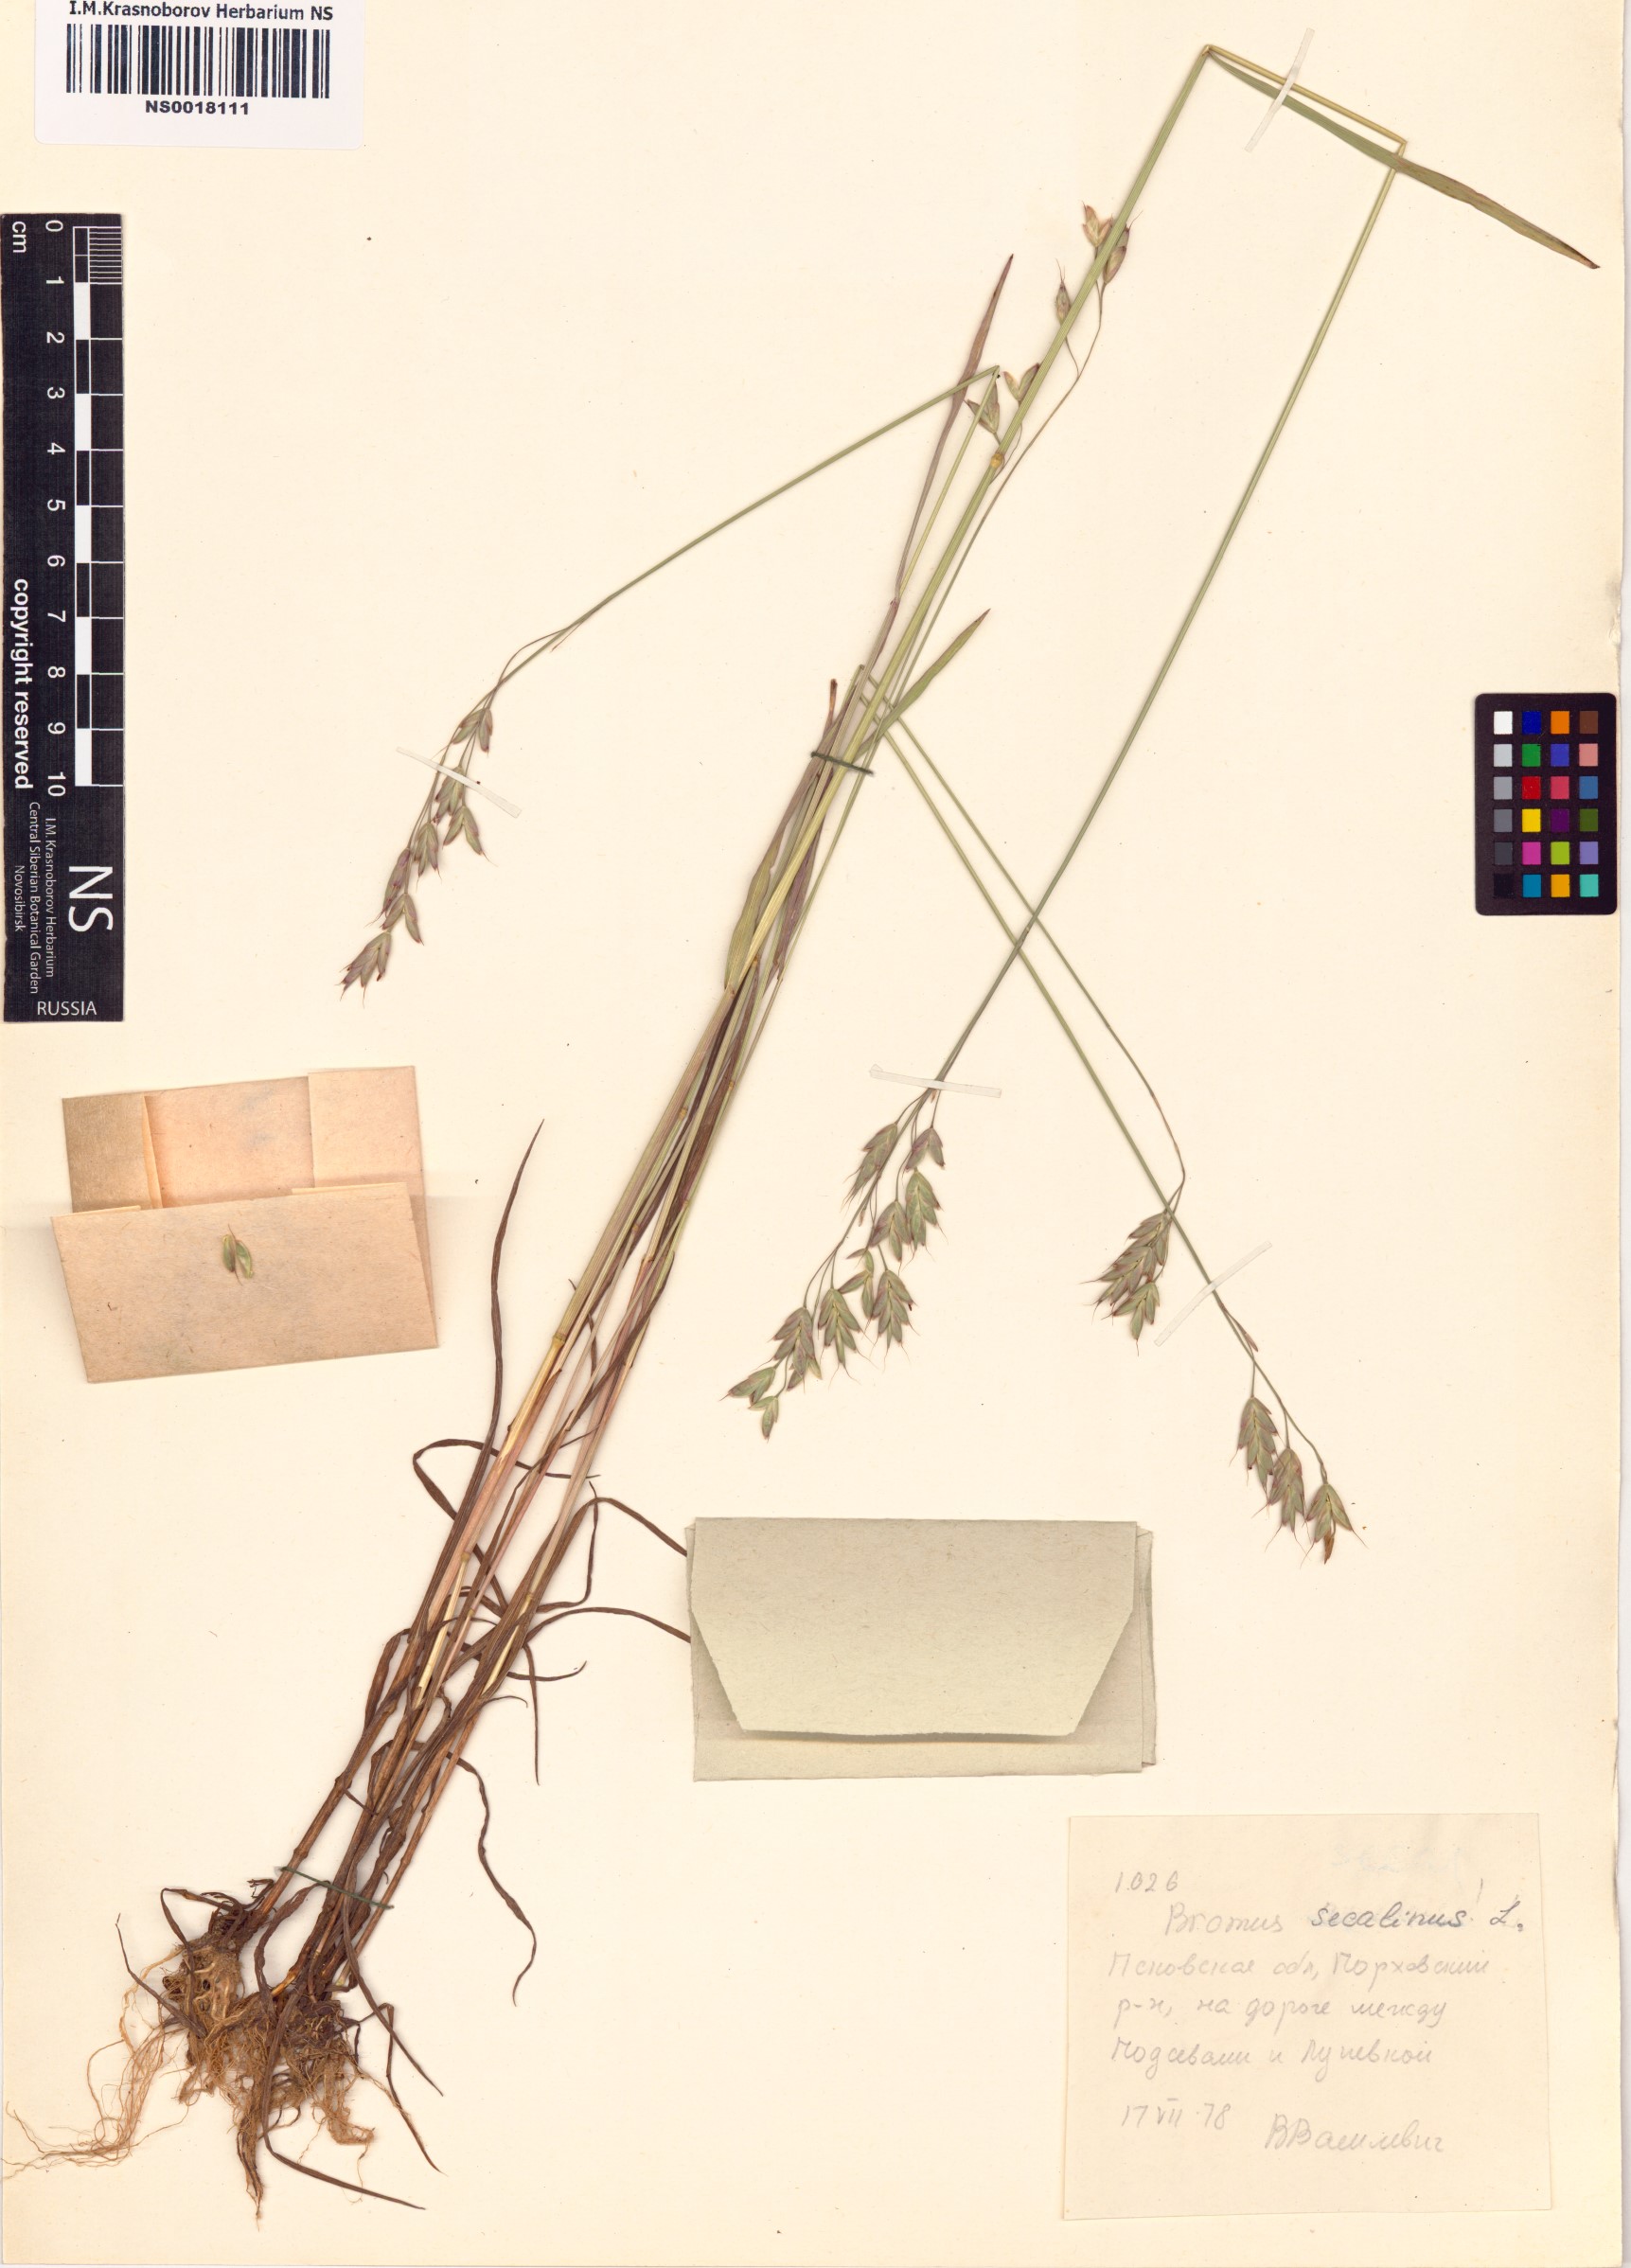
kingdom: Plantae
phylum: Tracheophyta
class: Liliopsida
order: Poales
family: Poaceae
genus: Bromus
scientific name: Bromus secalinus
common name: Rye brome
